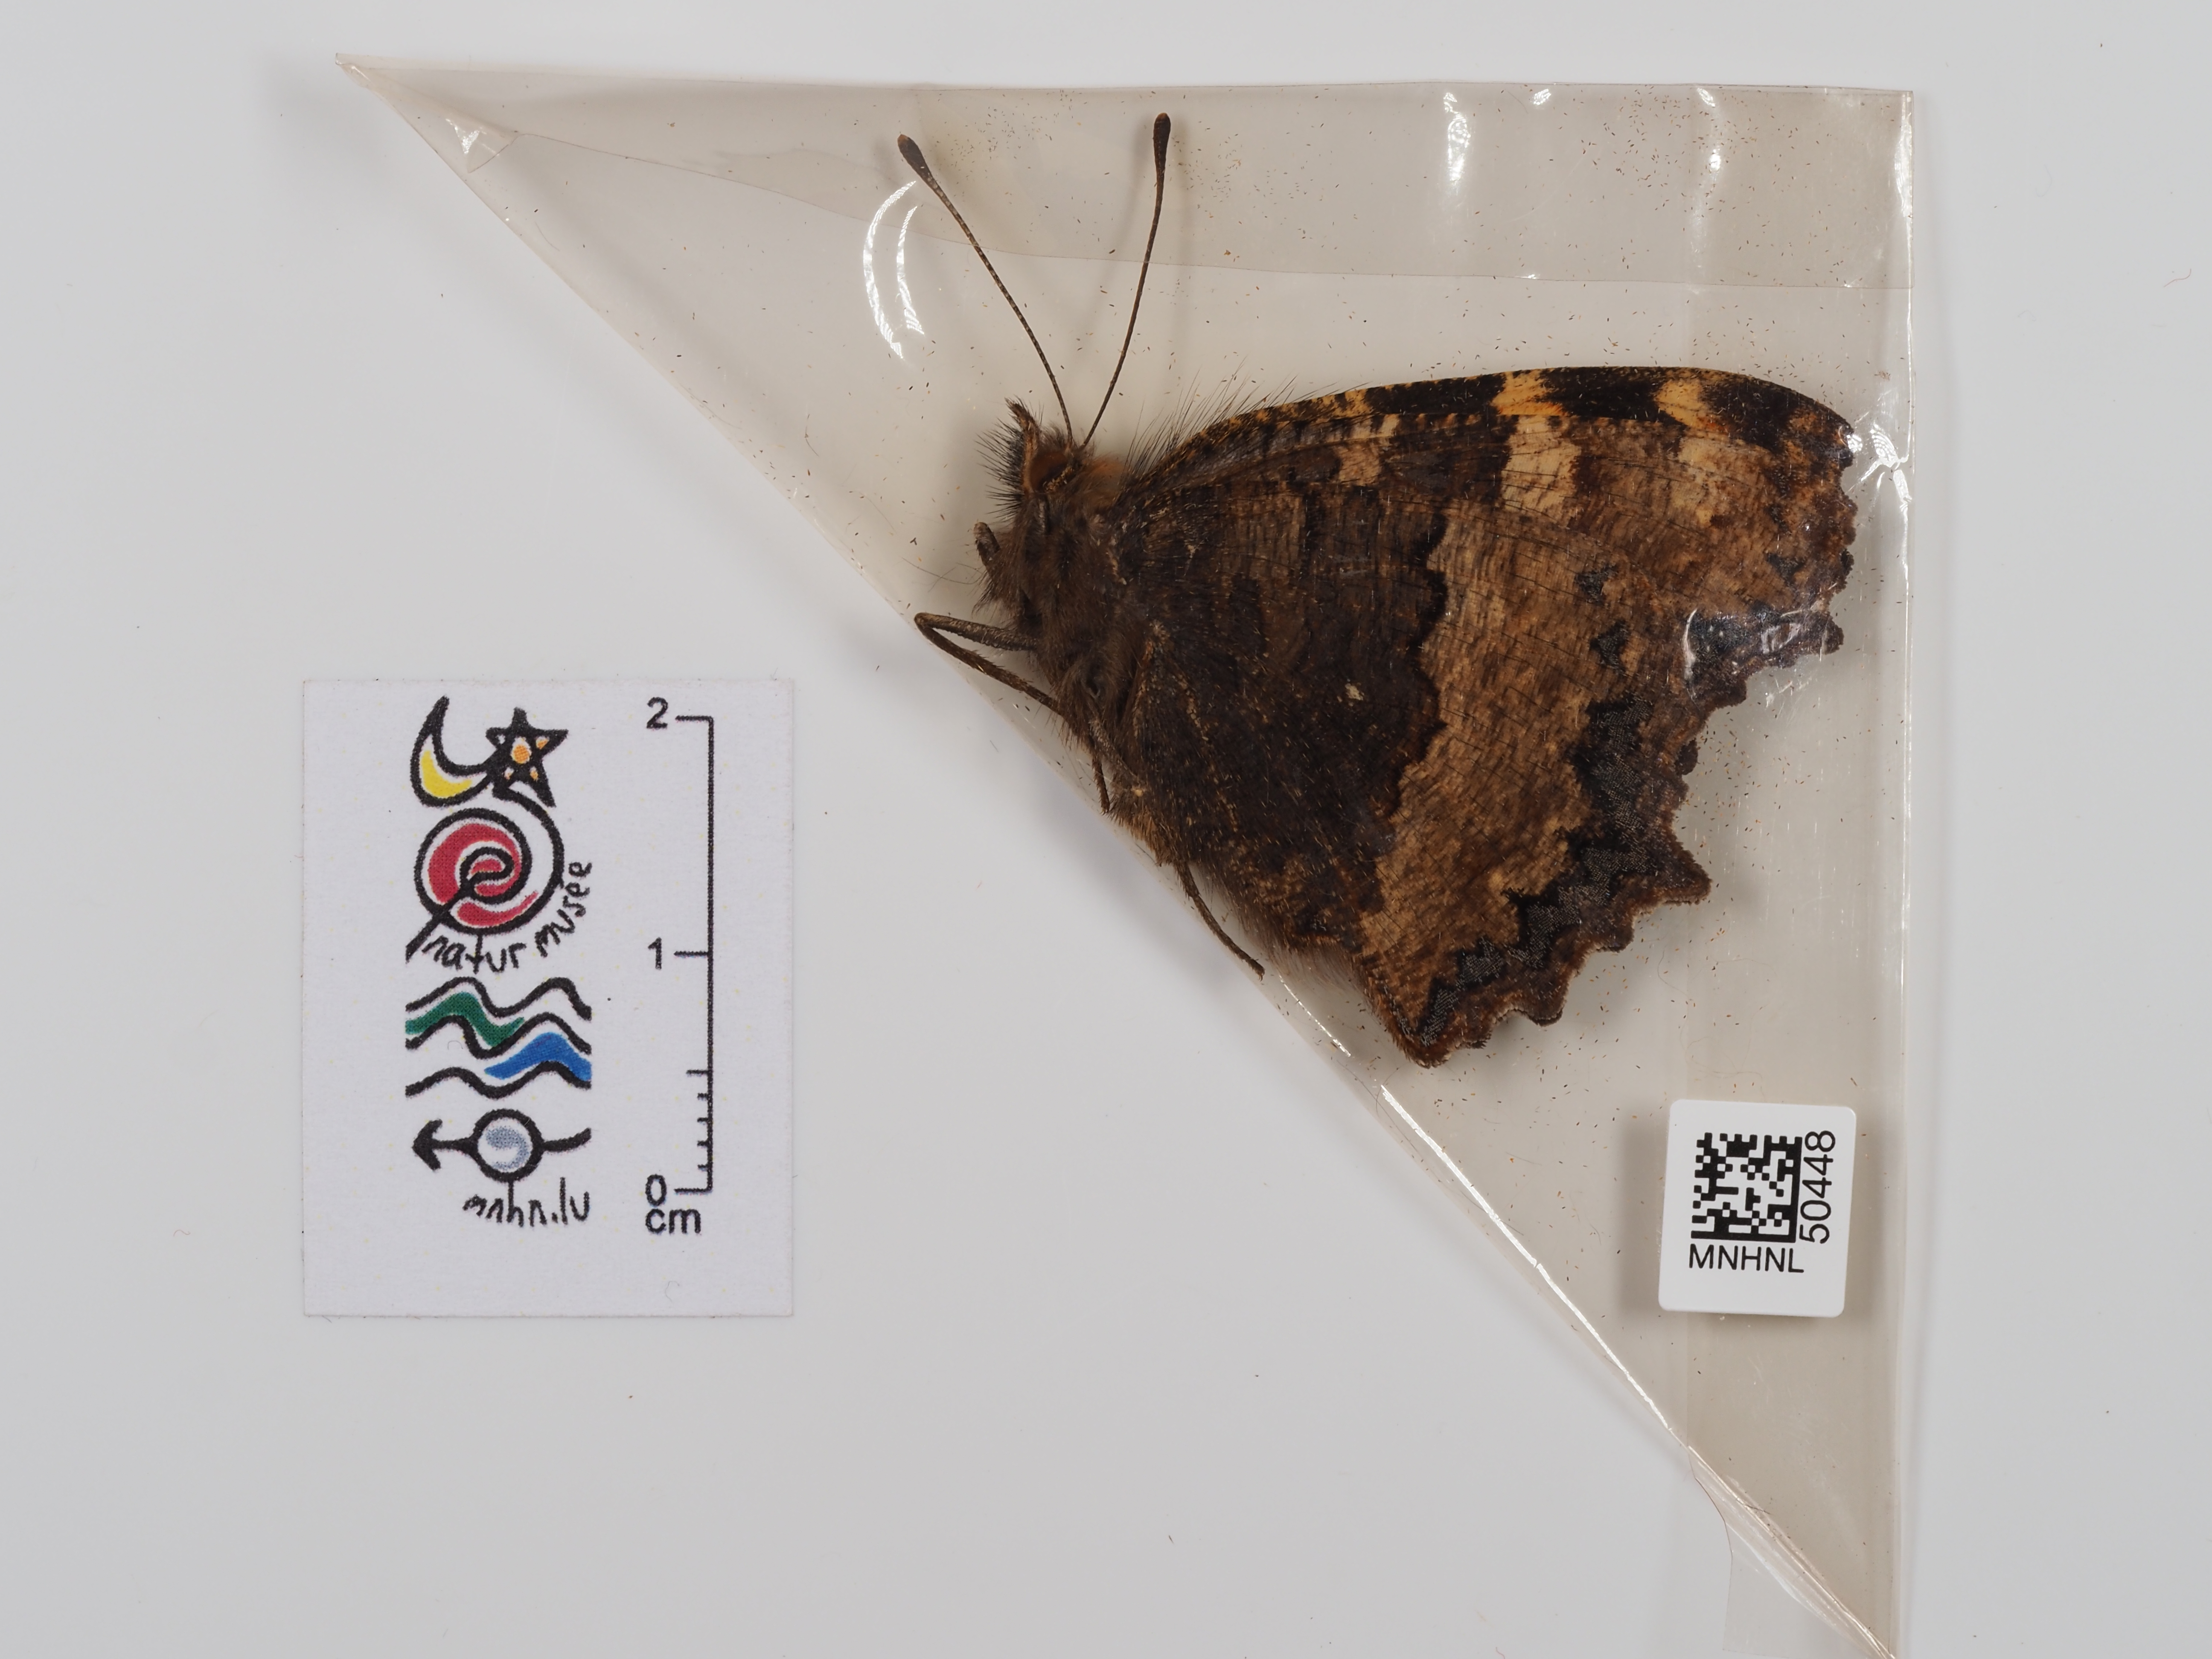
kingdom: Animalia
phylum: Arthropoda
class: Insecta
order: Lepidoptera
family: Nymphalidae
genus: Nymphalis
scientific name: Nymphalis polychloros
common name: Large tortoiseshell
